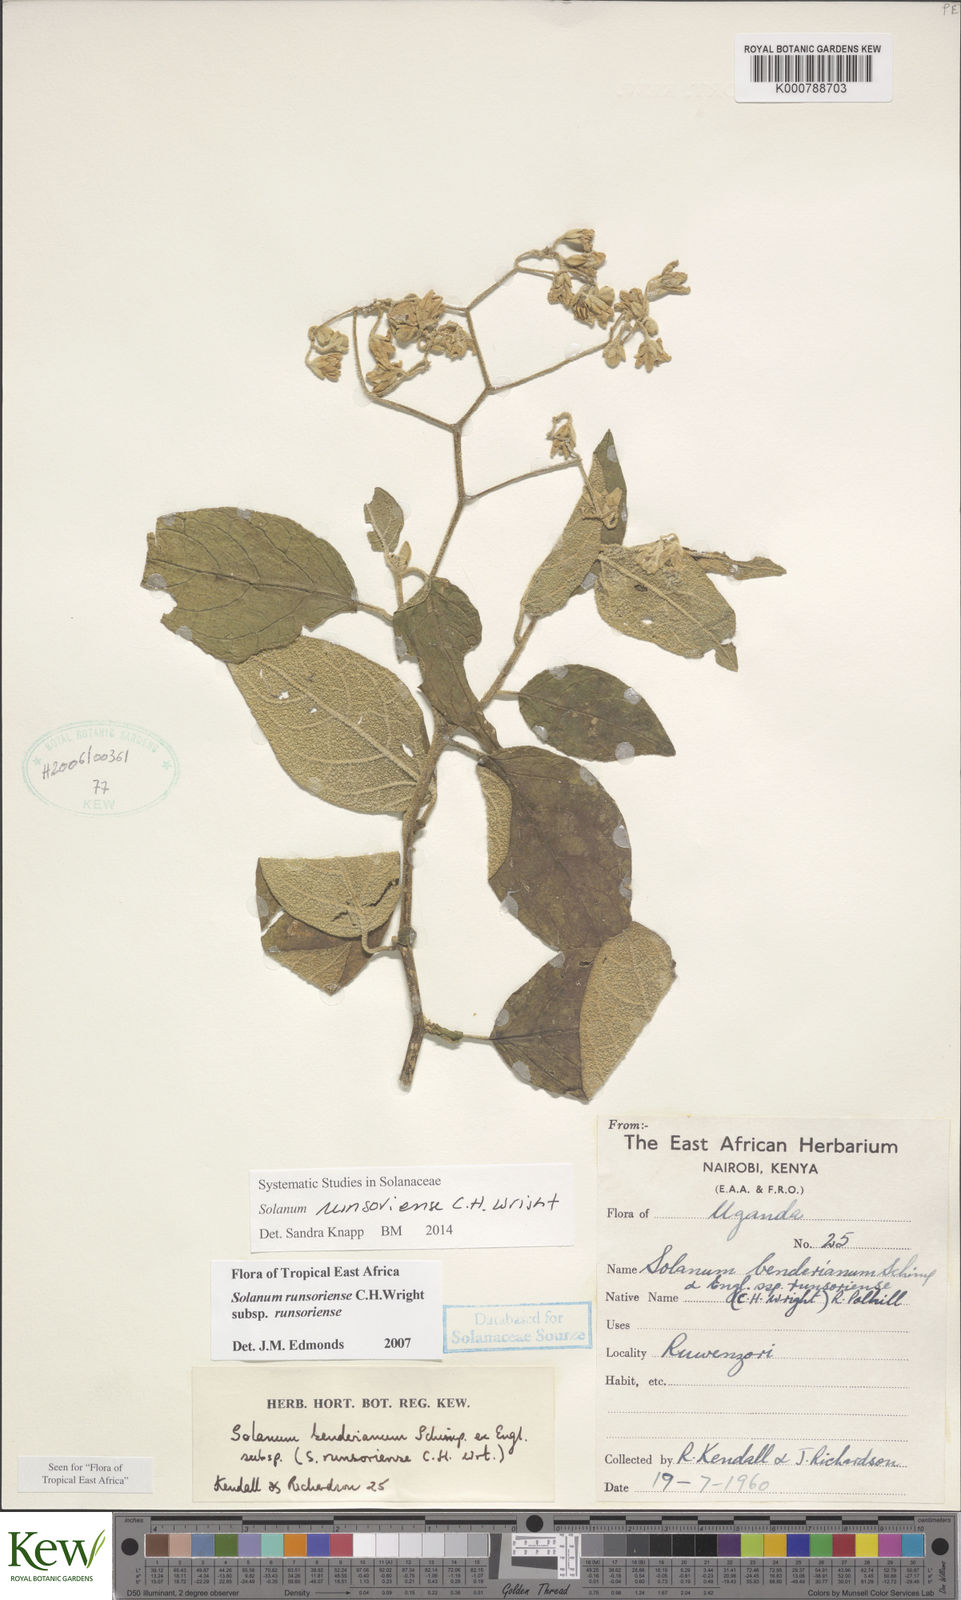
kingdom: Plantae
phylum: Tracheophyta
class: Magnoliopsida
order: Solanales
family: Solanaceae
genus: Solanum
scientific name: Solanum runsoriense
